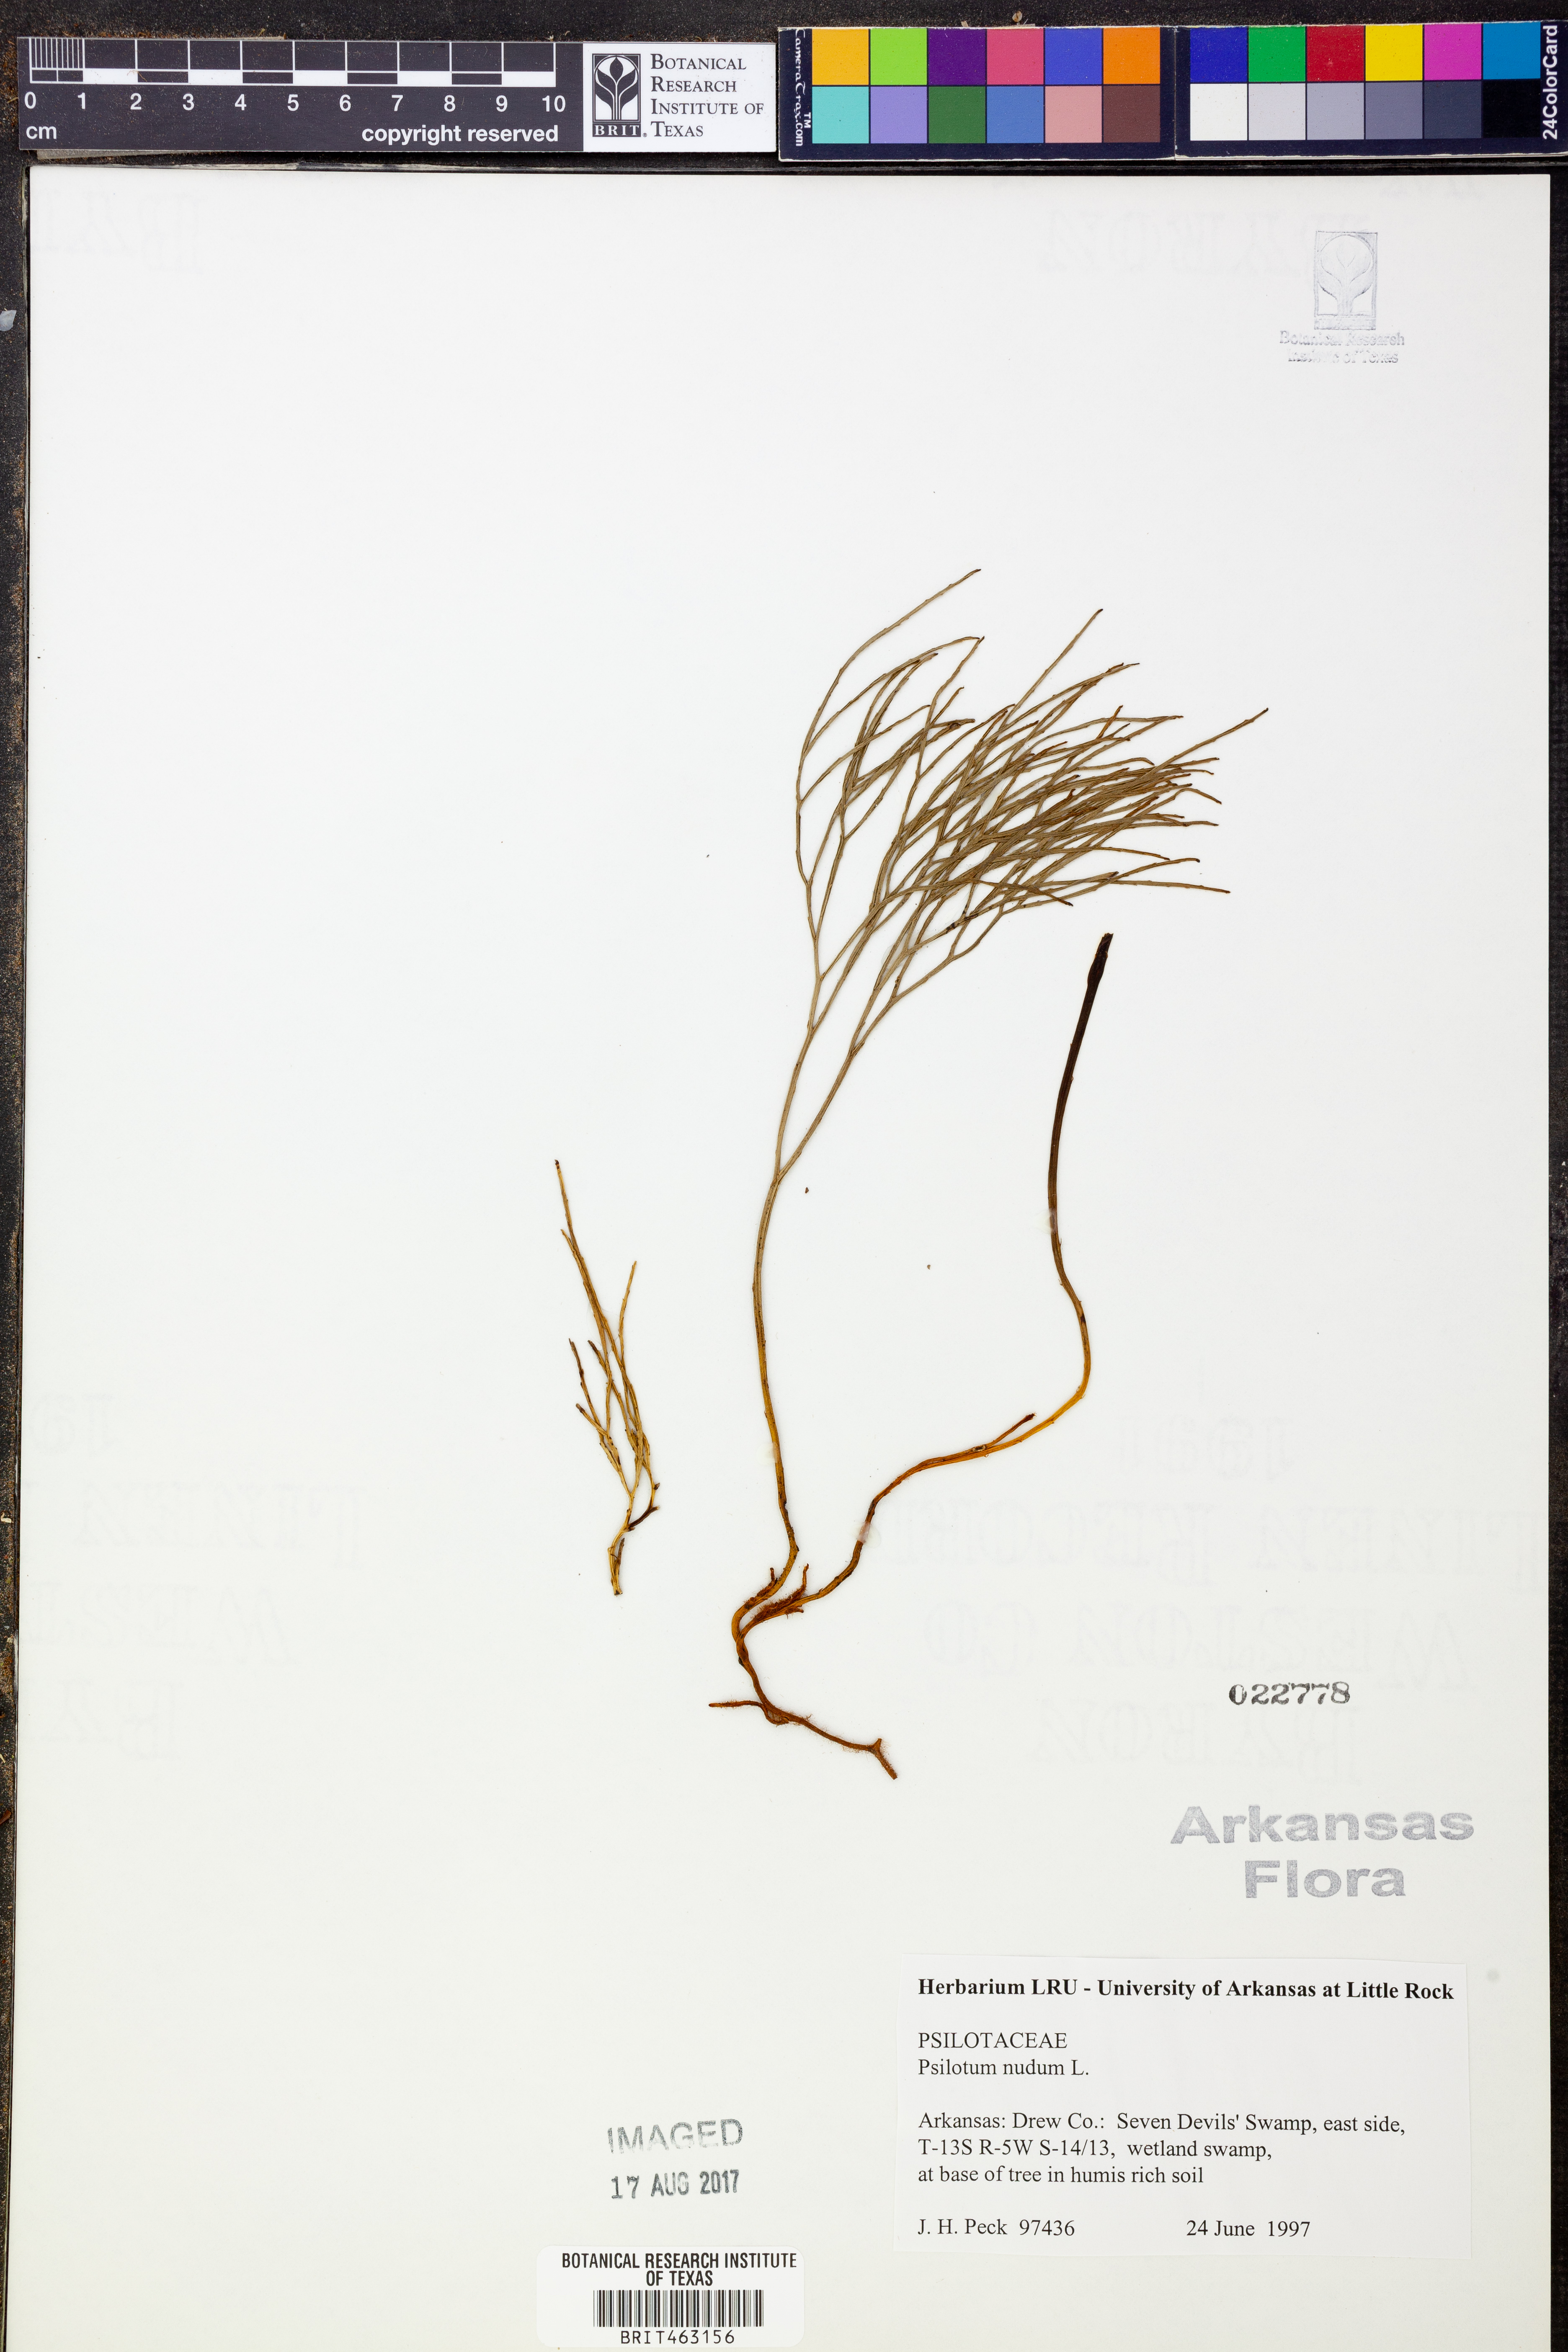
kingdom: Plantae
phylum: Tracheophyta
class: Polypodiopsida
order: Psilotales
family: Psilotaceae
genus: Psilotum
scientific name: Psilotum nudum
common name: Skeleton fork fern
